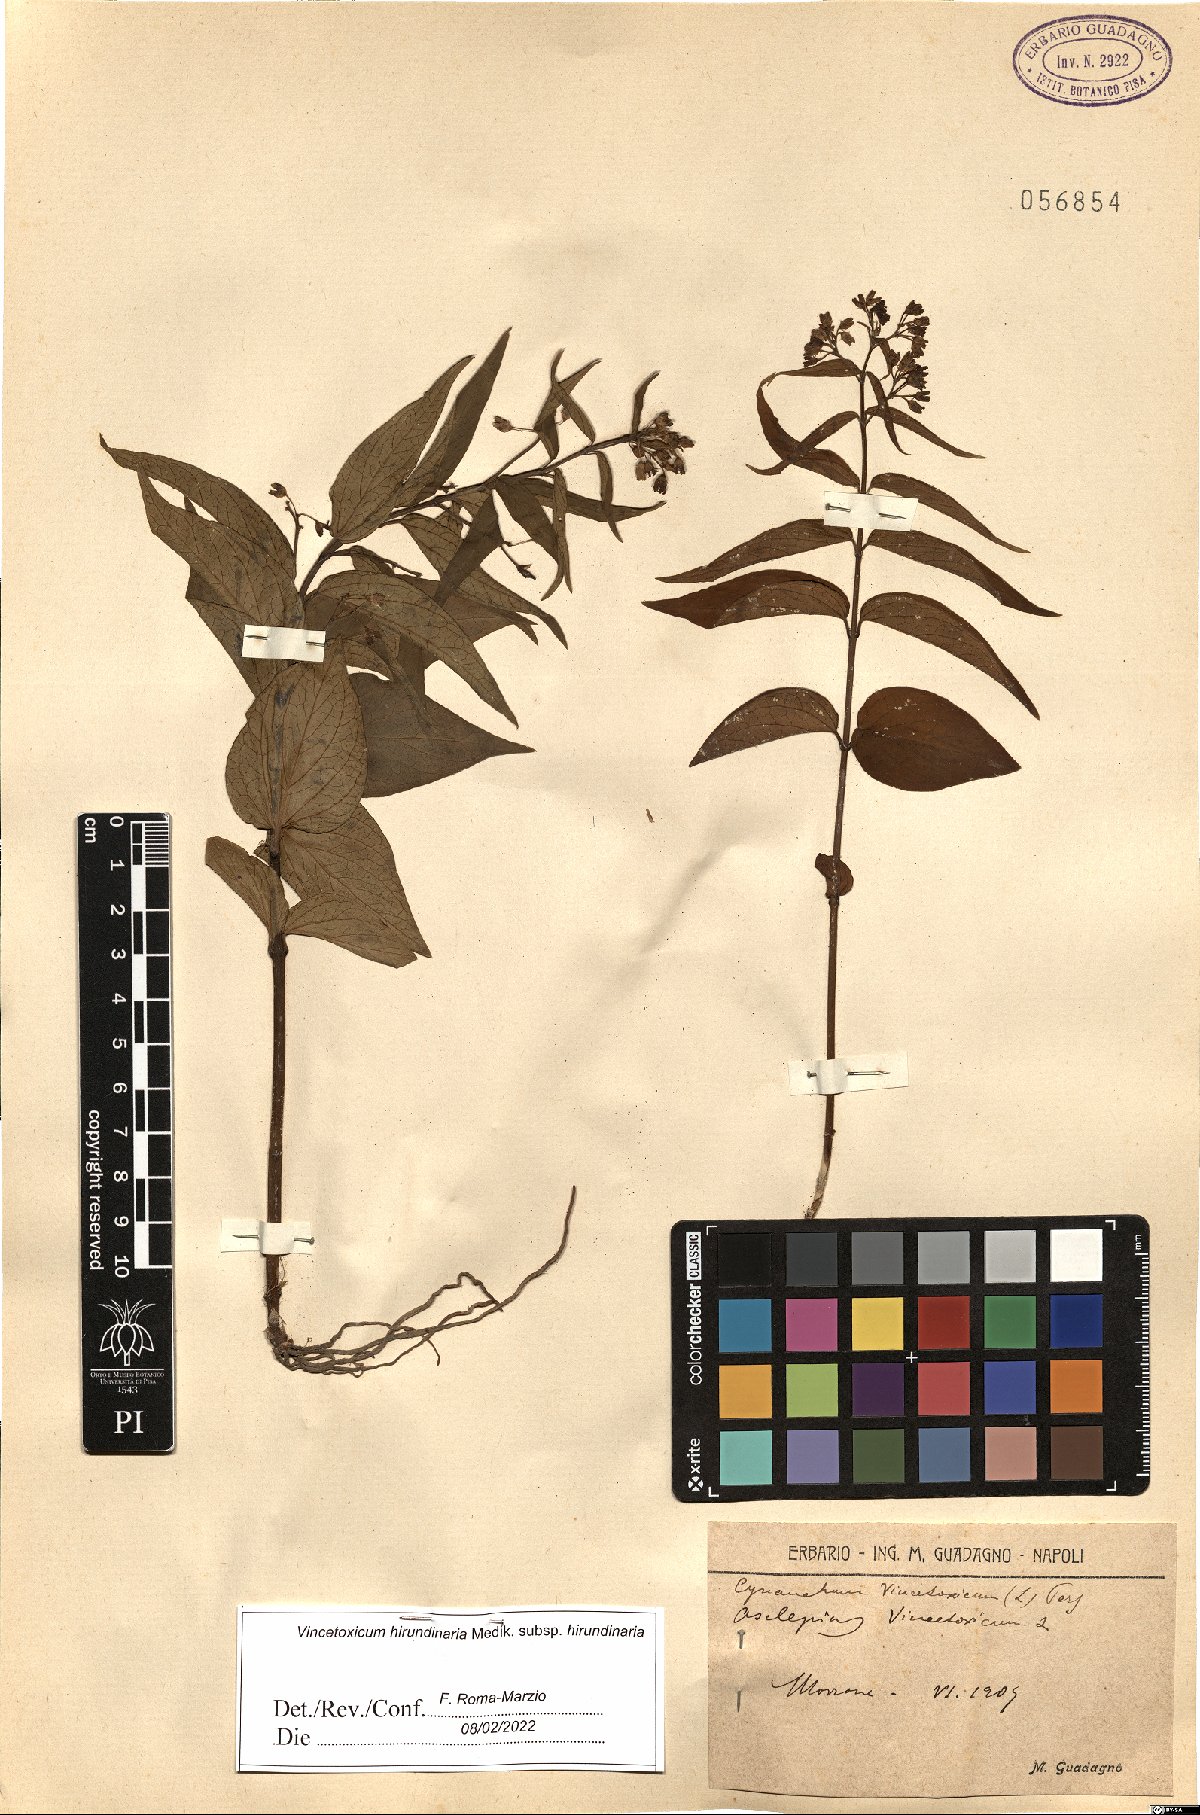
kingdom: Plantae
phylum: Tracheophyta
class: Magnoliopsida
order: Gentianales
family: Apocynaceae
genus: Vincetoxicum
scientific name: Vincetoxicum hirundinaria
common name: White swallowwort
